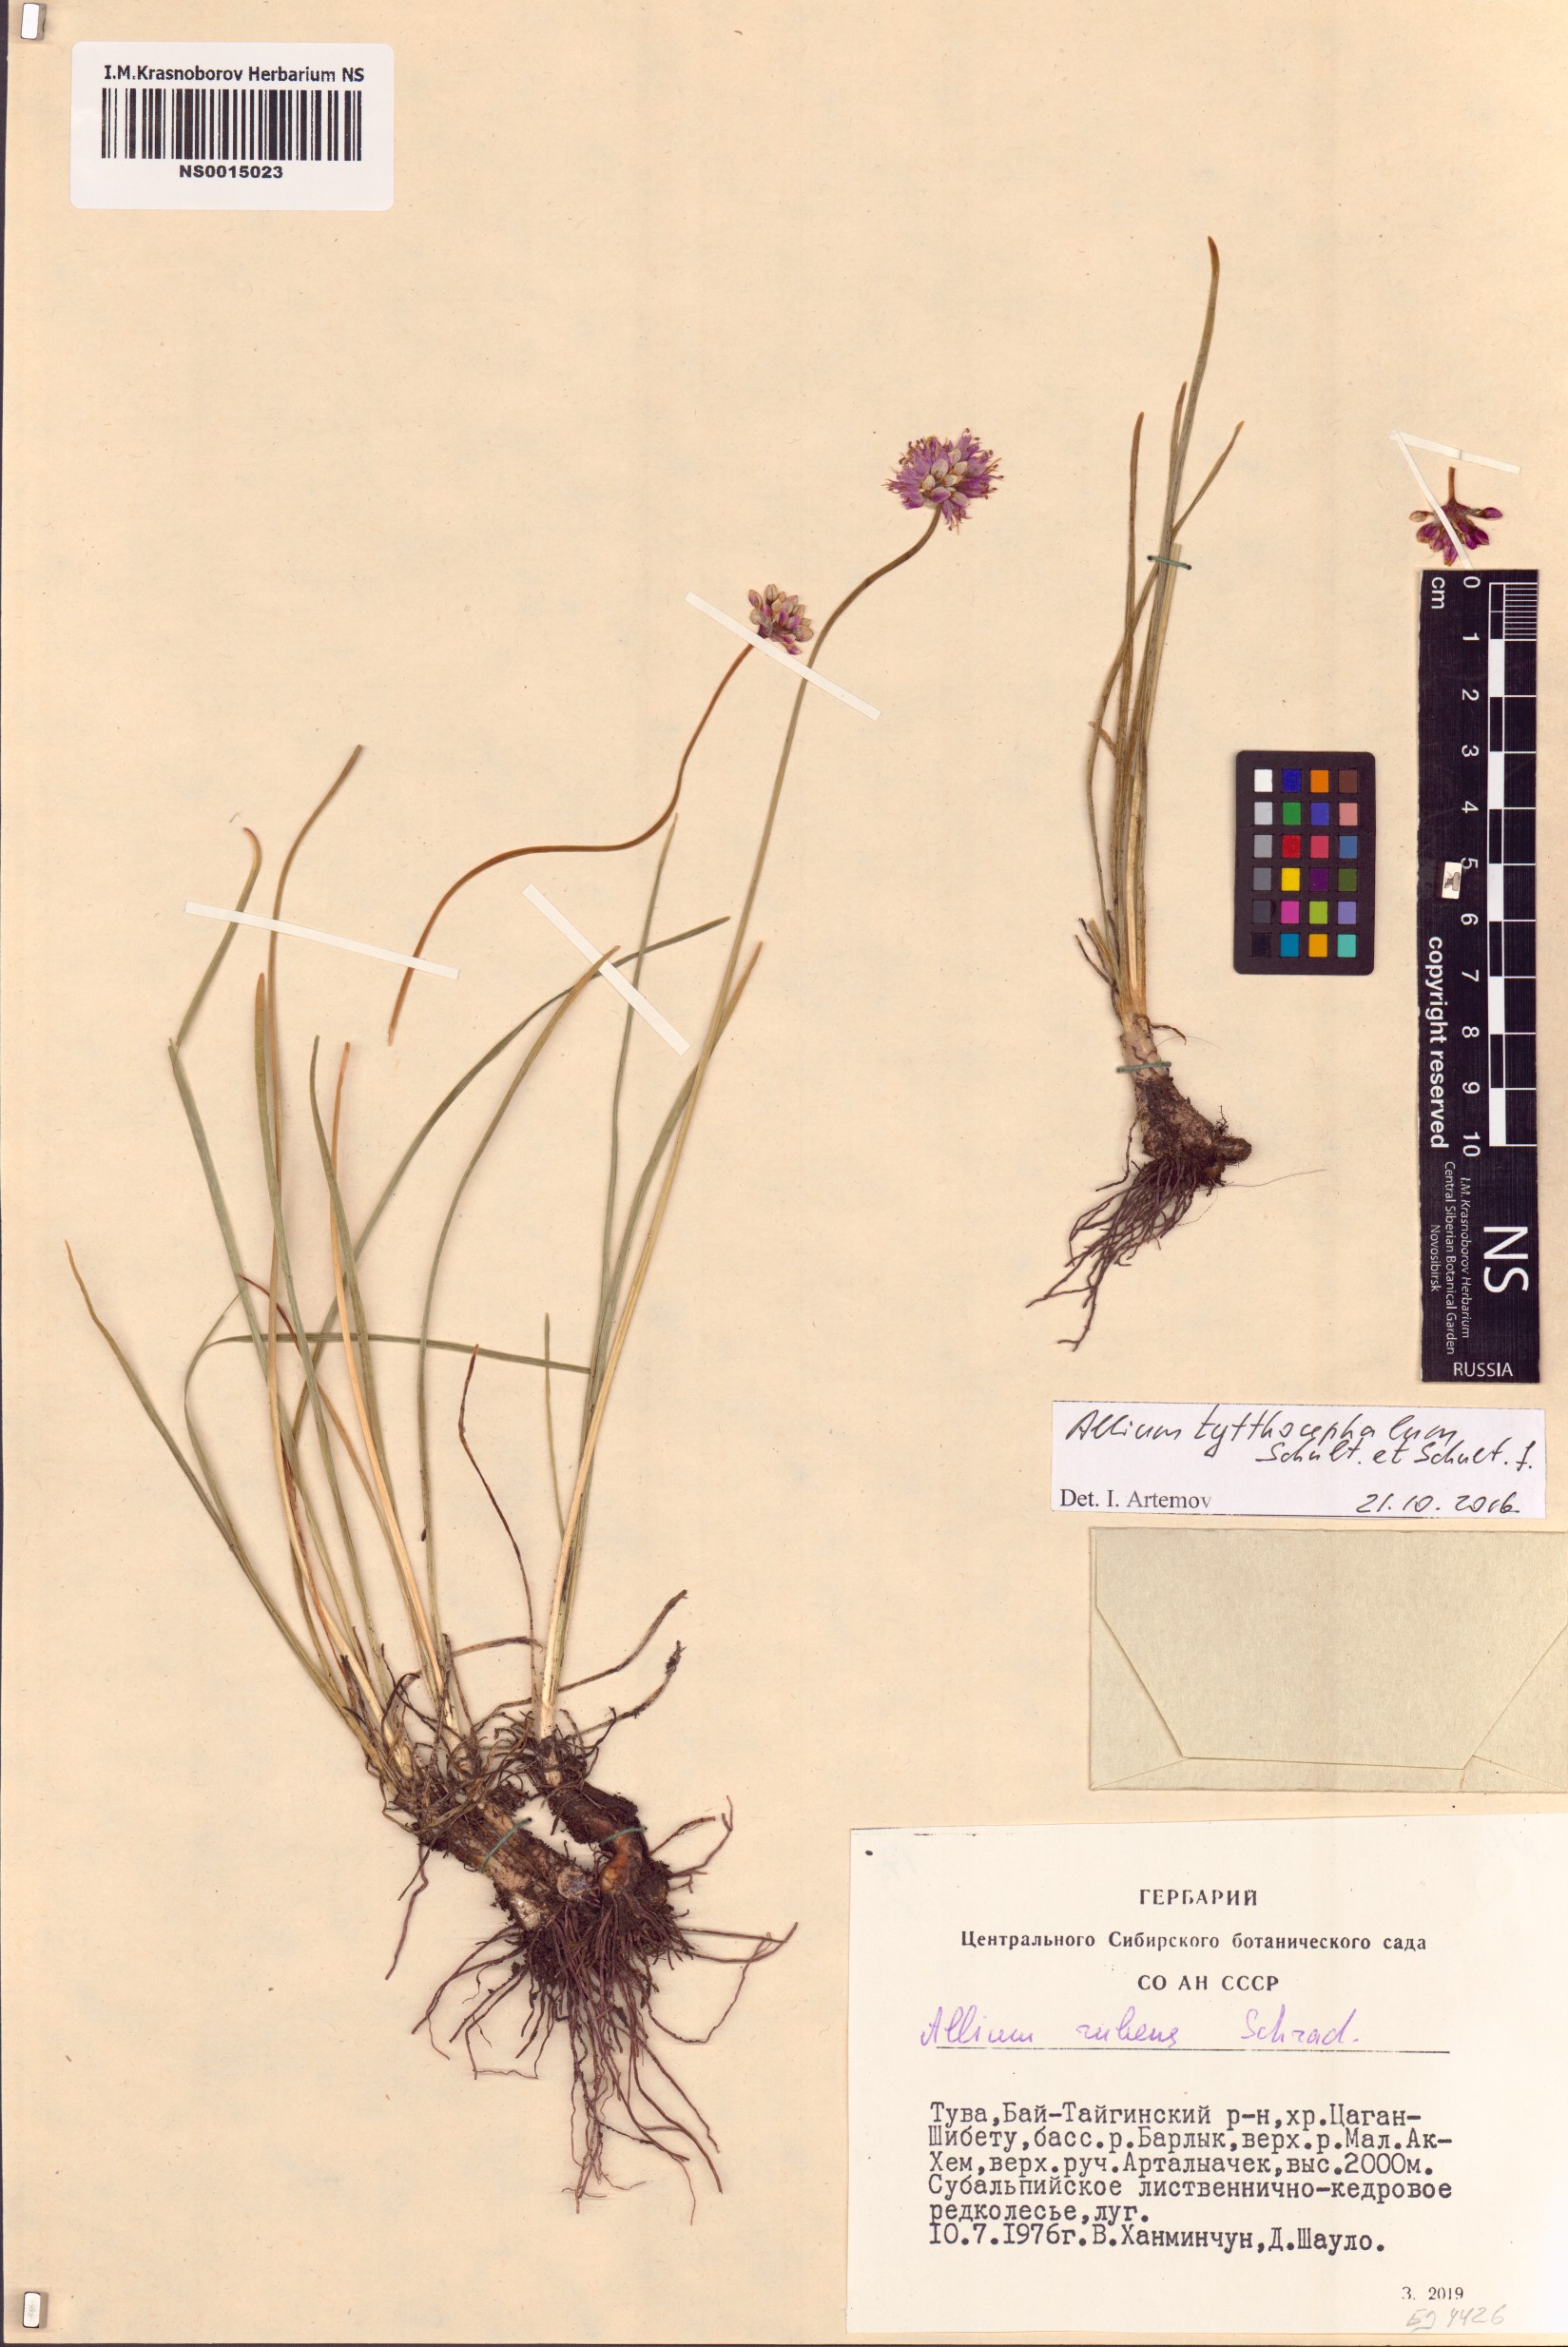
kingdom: Plantae
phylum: Tracheophyta
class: Liliopsida
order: Asparagales
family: Amaryllidaceae
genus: Allium
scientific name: Allium tytthocephalum
